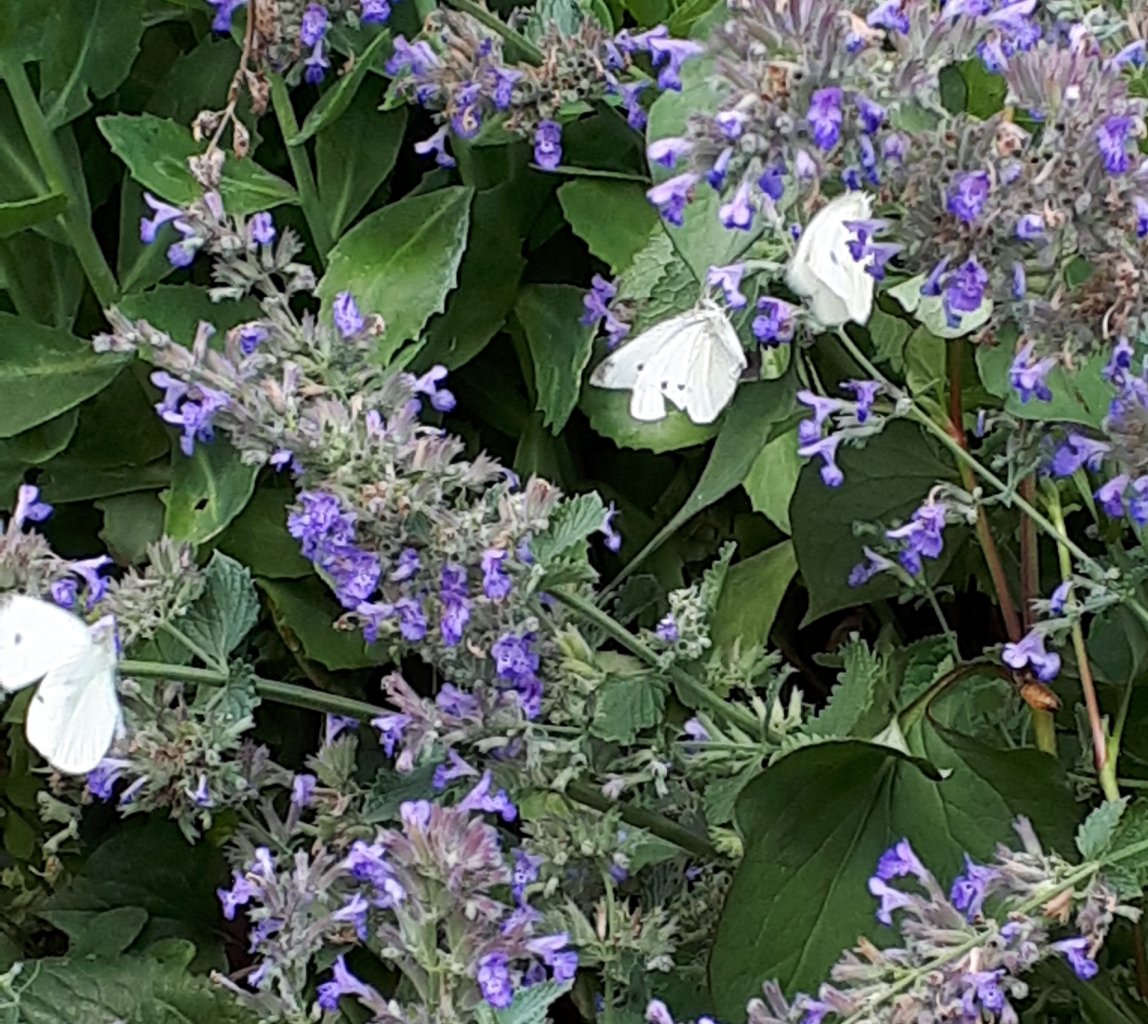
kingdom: Animalia
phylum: Arthropoda
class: Insecta
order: Lepidoptera
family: Pieridae
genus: Pieris
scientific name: Pieris rapae
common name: Cabbage White
